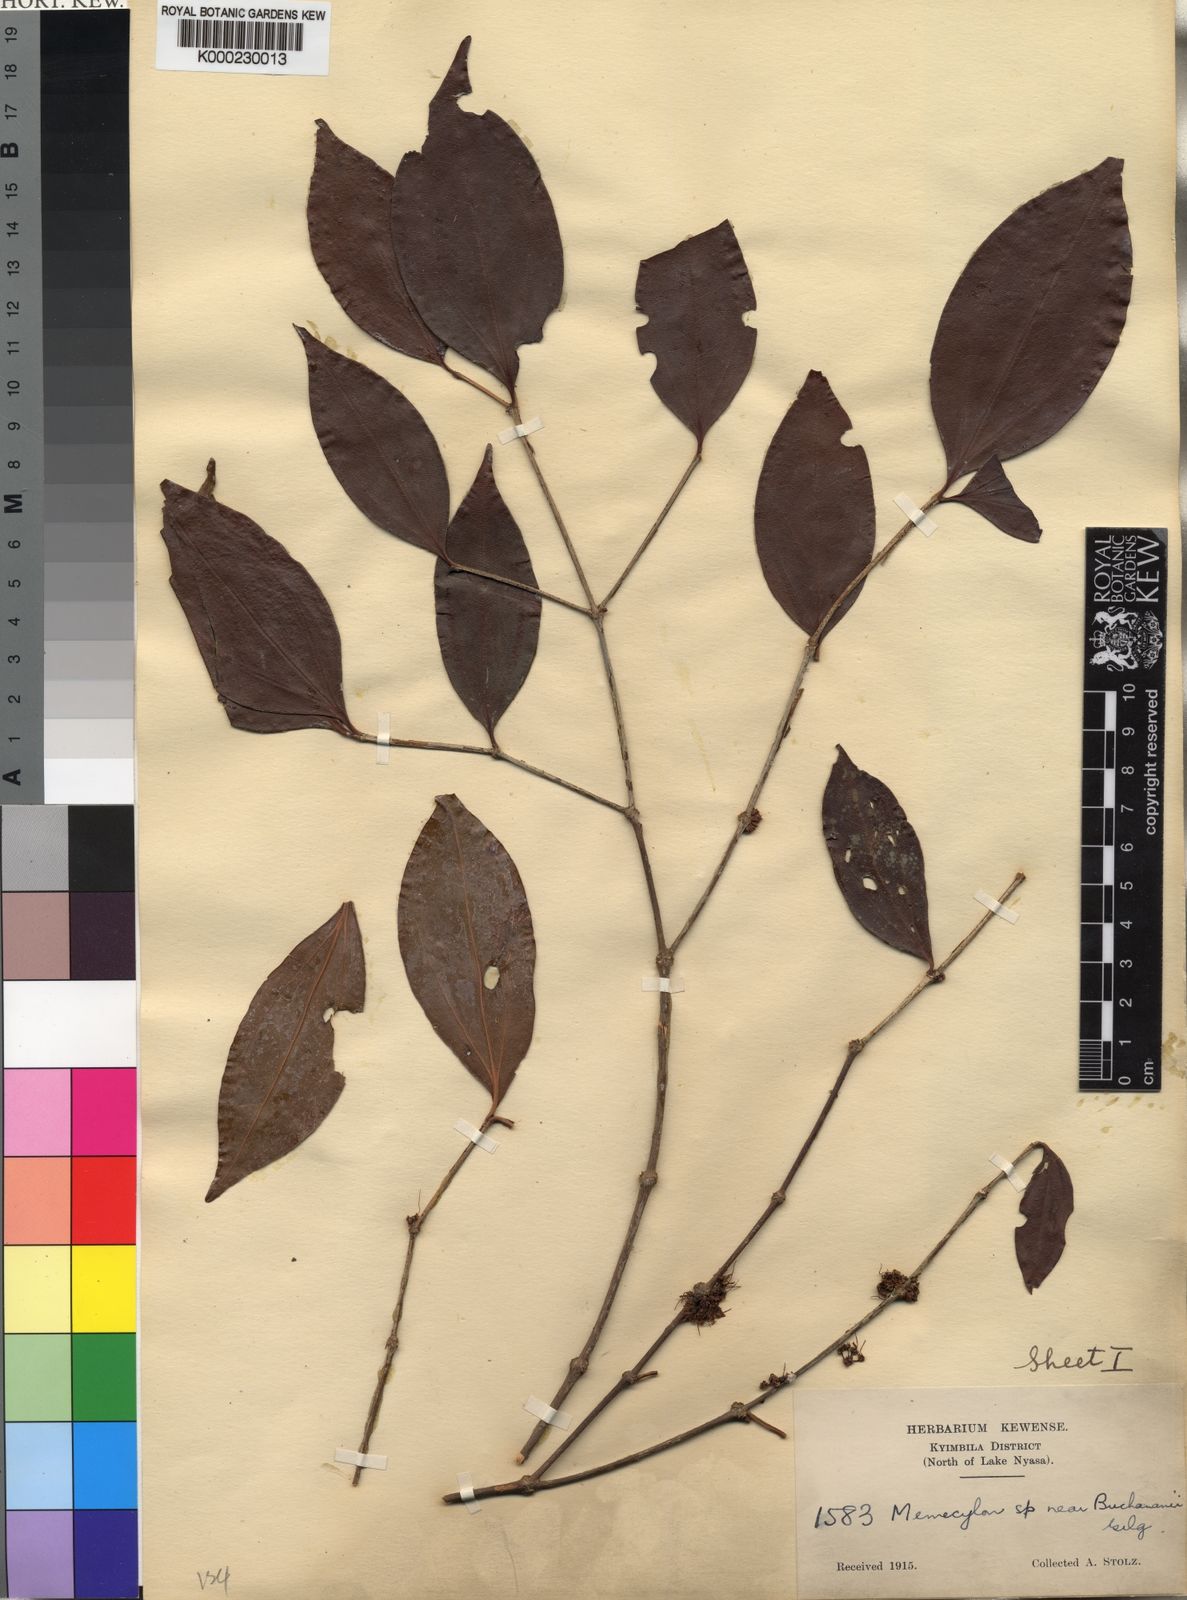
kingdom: Plantae
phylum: Tracheophyta
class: Magnoliopsida
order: Myrtales
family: Melastomataceae
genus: Warneckea
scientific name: Warneckea
